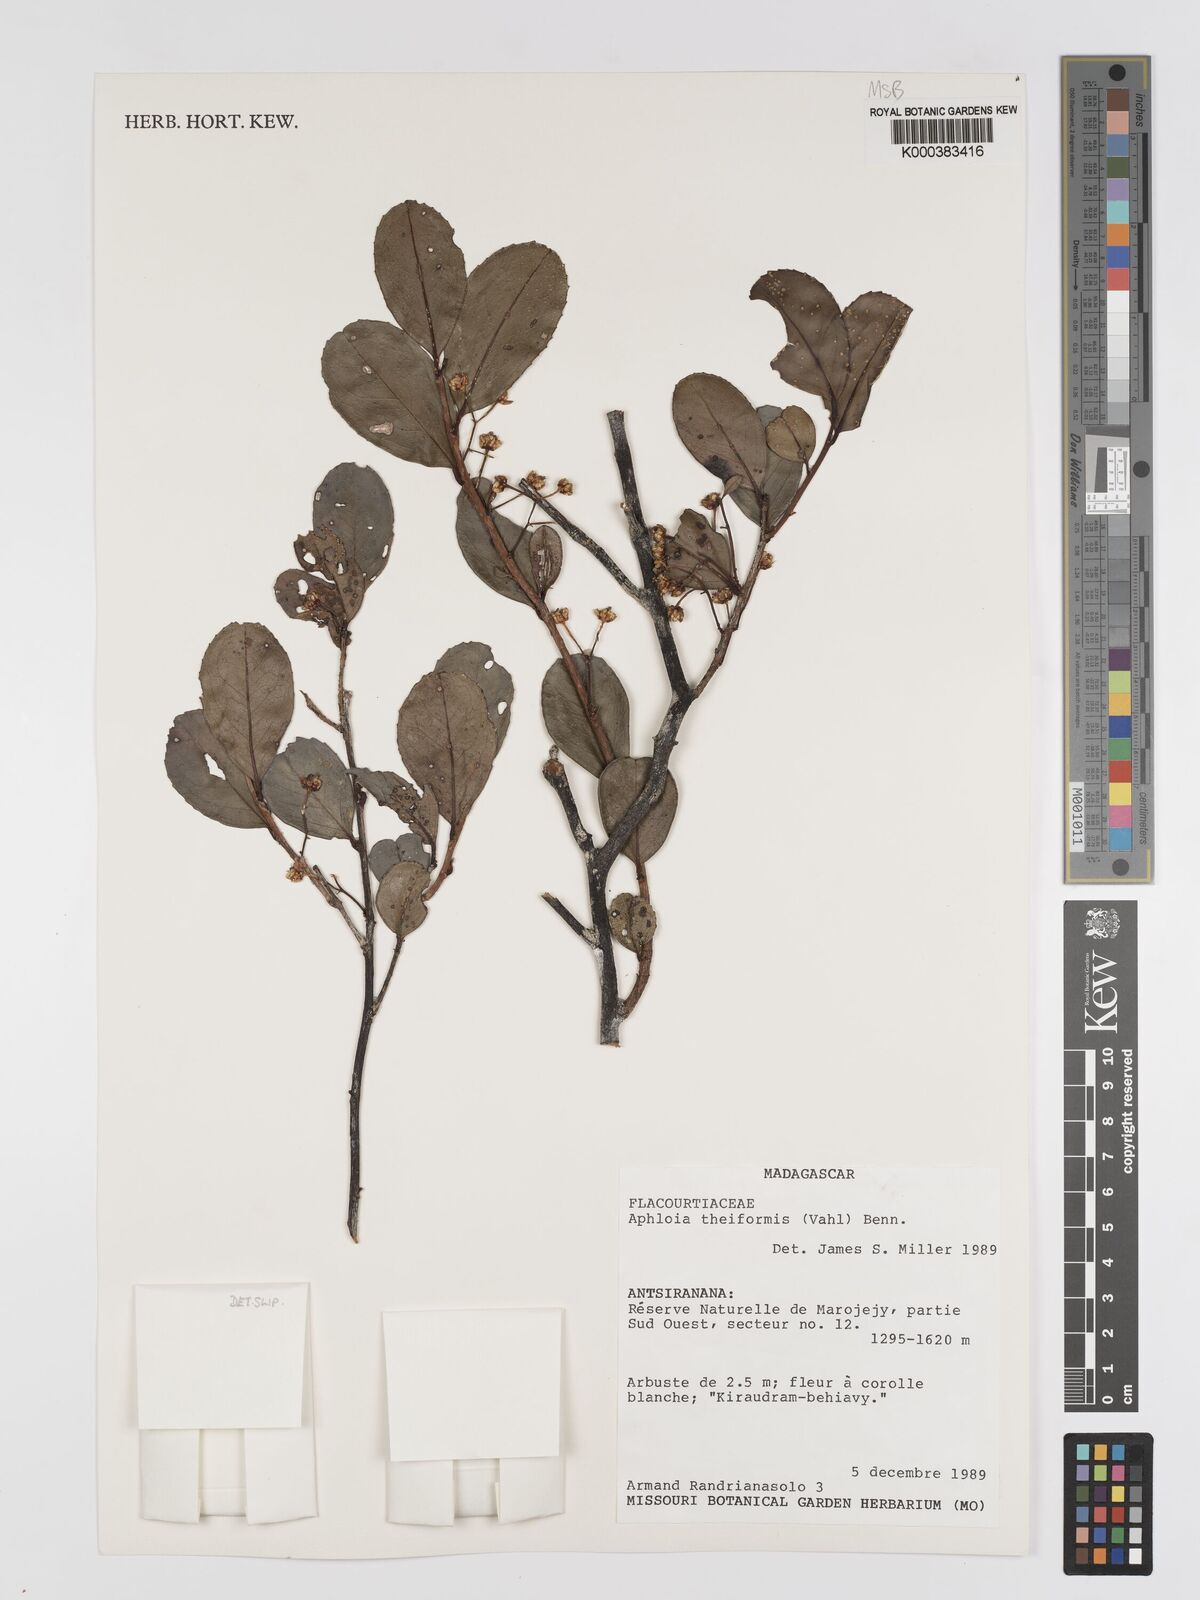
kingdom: Plantae
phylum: Tracheophyta
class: Magnoliopsida
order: Crossosomatales
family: Aphloiaceae
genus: Aphloia
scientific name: Aphloia theiformis
